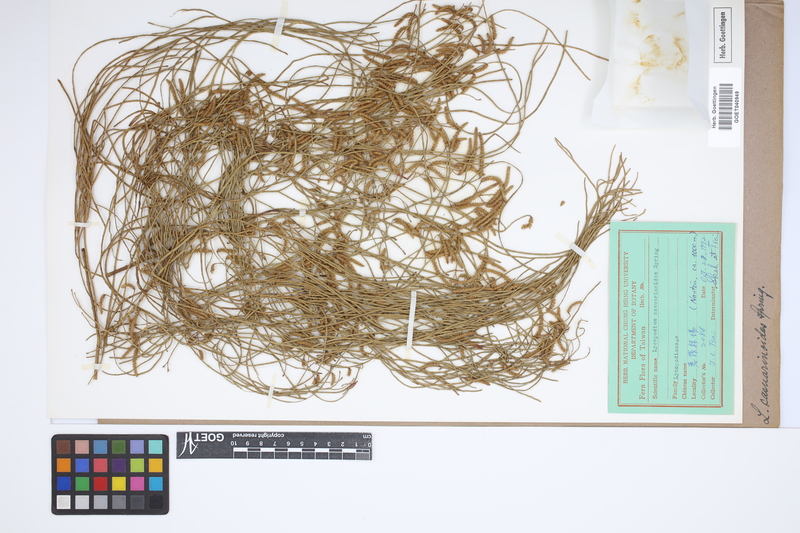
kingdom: Plantae
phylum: Tracheophyta
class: Lycopodiopsida
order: Lycopodiales
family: Lycopodiaceae
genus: Lycopodiastrum
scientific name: Lycopodiastrum casuarinoides
